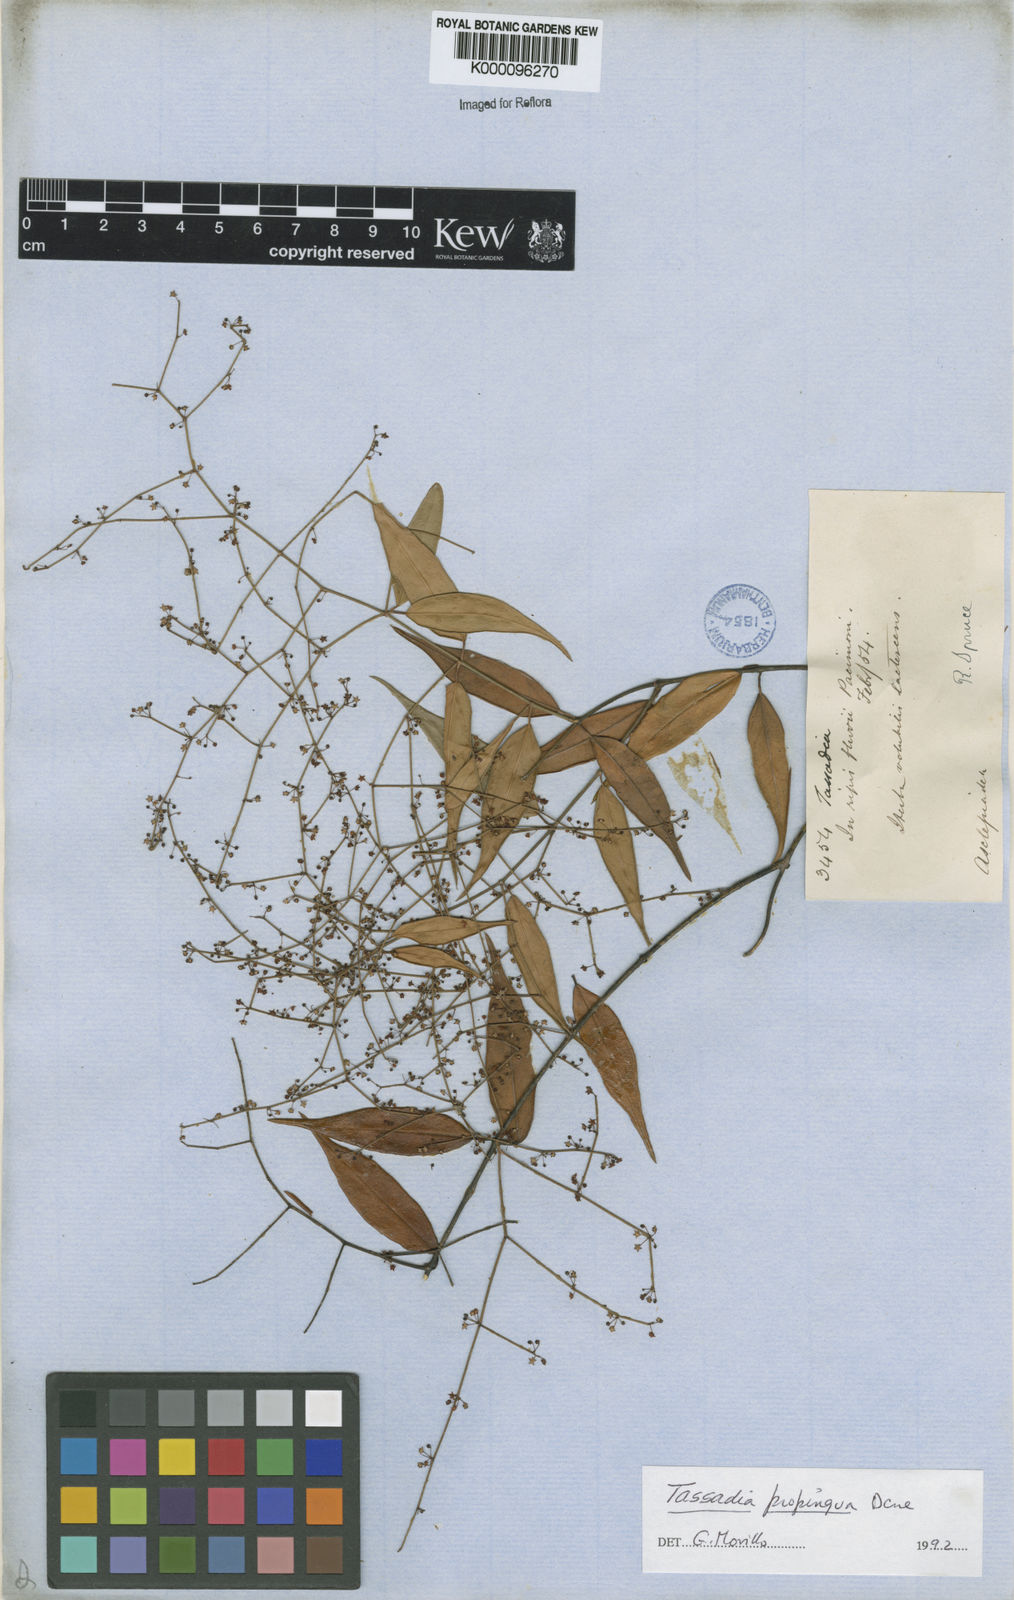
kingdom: Plantae
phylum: Tracheophyta
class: Magnoliopsida
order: Gentianales
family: Apocynaceae
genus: Tassadia
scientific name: Tassadia propinqua
